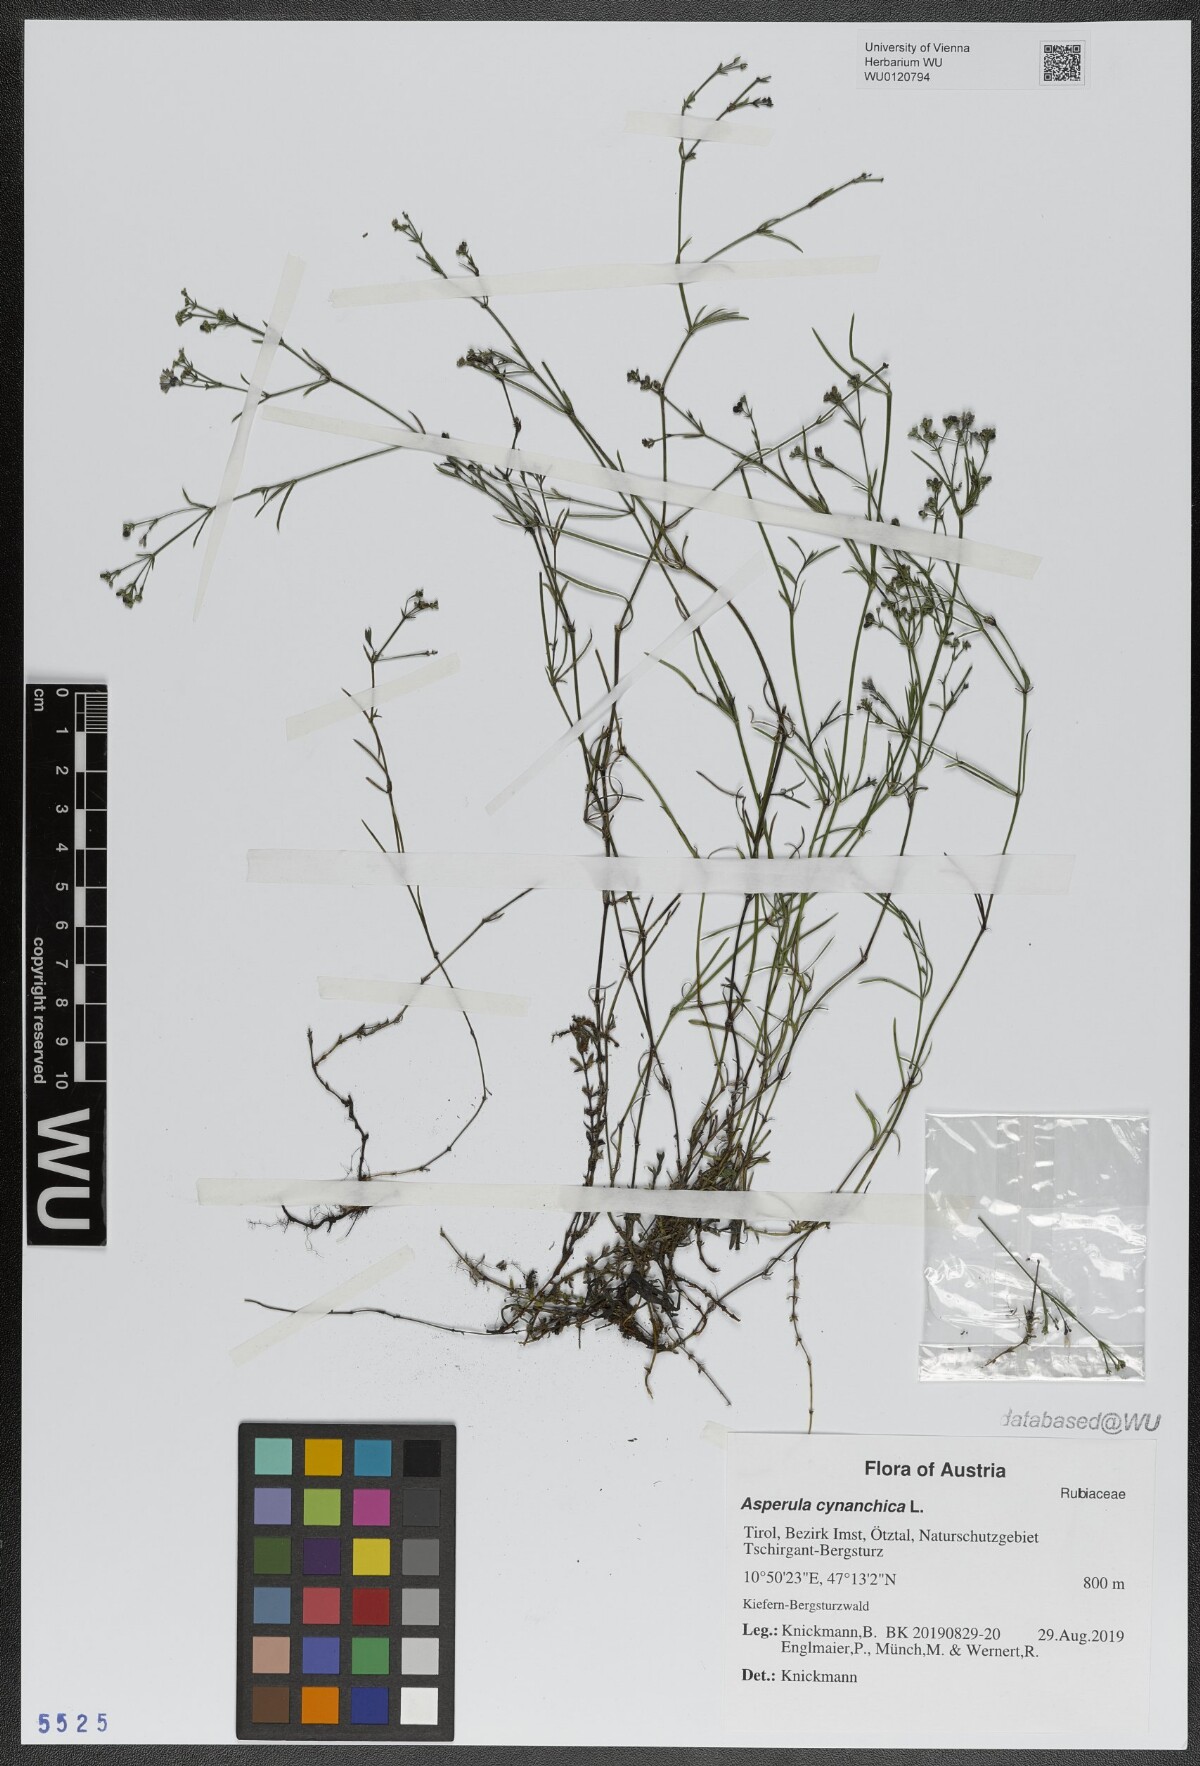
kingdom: Plantae
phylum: Tracheophyta
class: Magnoliopsida
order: Gentianales
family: Rubiaceae
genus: Cynanchica
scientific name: Cynanchica pyrenaica
